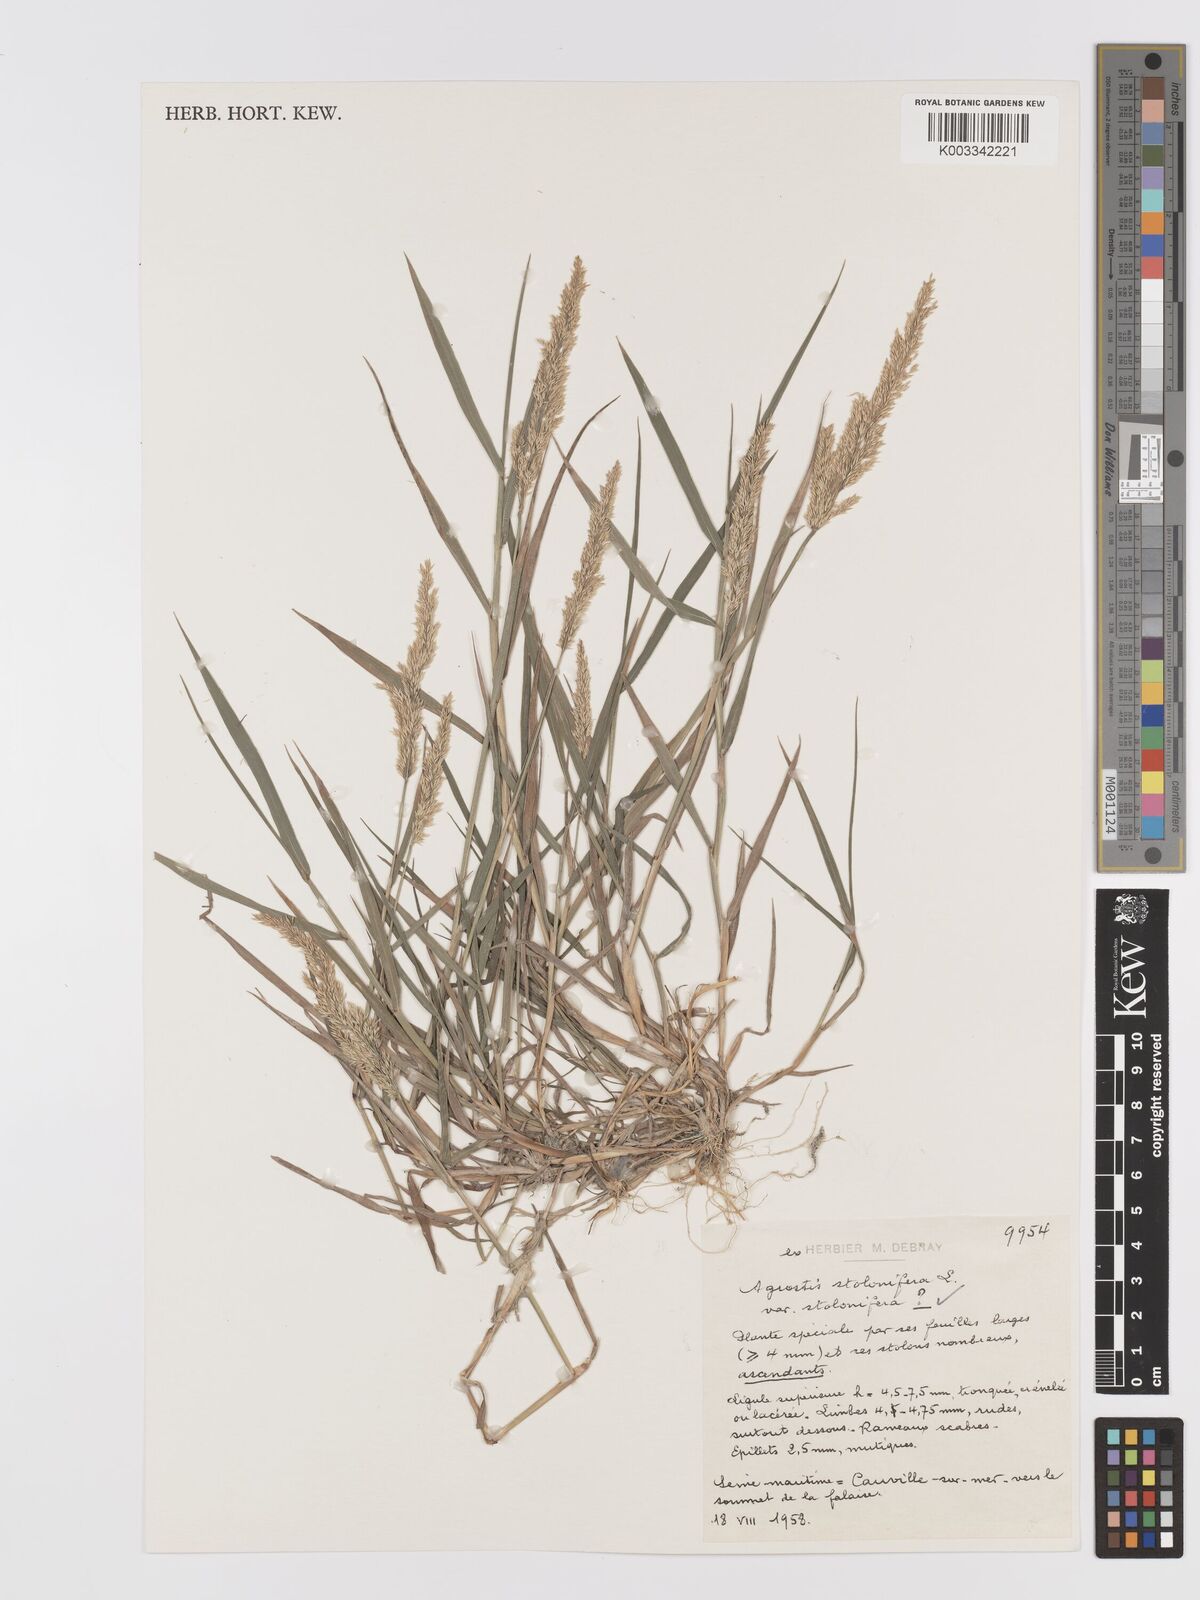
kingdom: Plantae
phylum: Tracheophyta
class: Liliopsida
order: Poales
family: Poaceae
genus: Agrostis
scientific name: Agrostis stolonifera
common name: Creeping bentgrass
